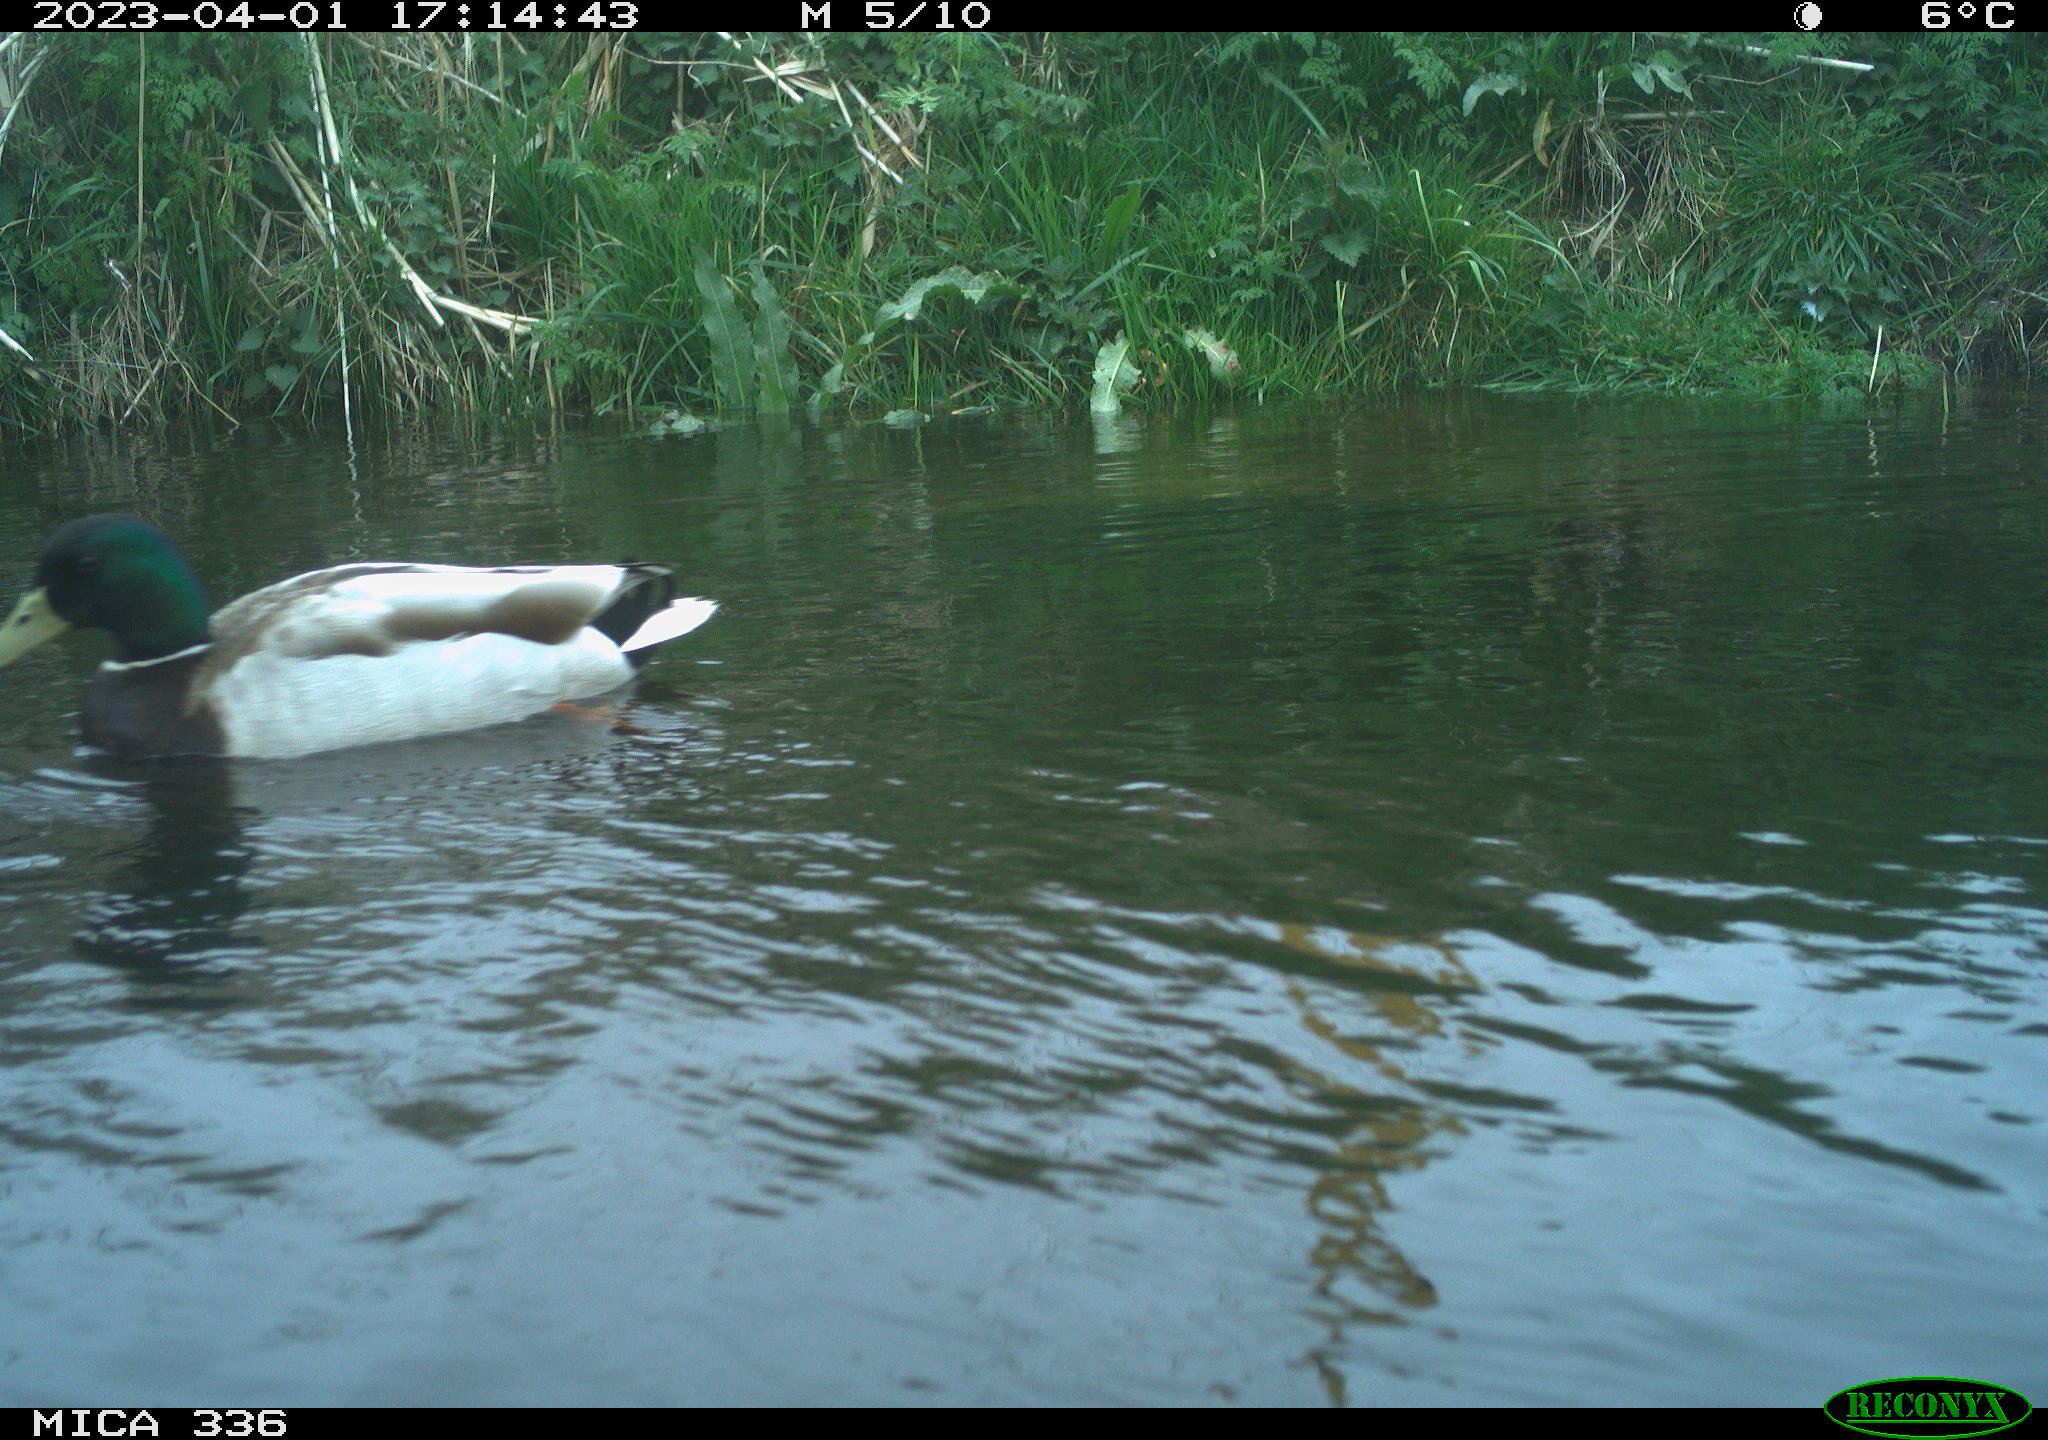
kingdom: Animalia
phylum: Chordata
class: Aves
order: Anseriformes
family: Anatidae
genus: Anas
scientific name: Anas
